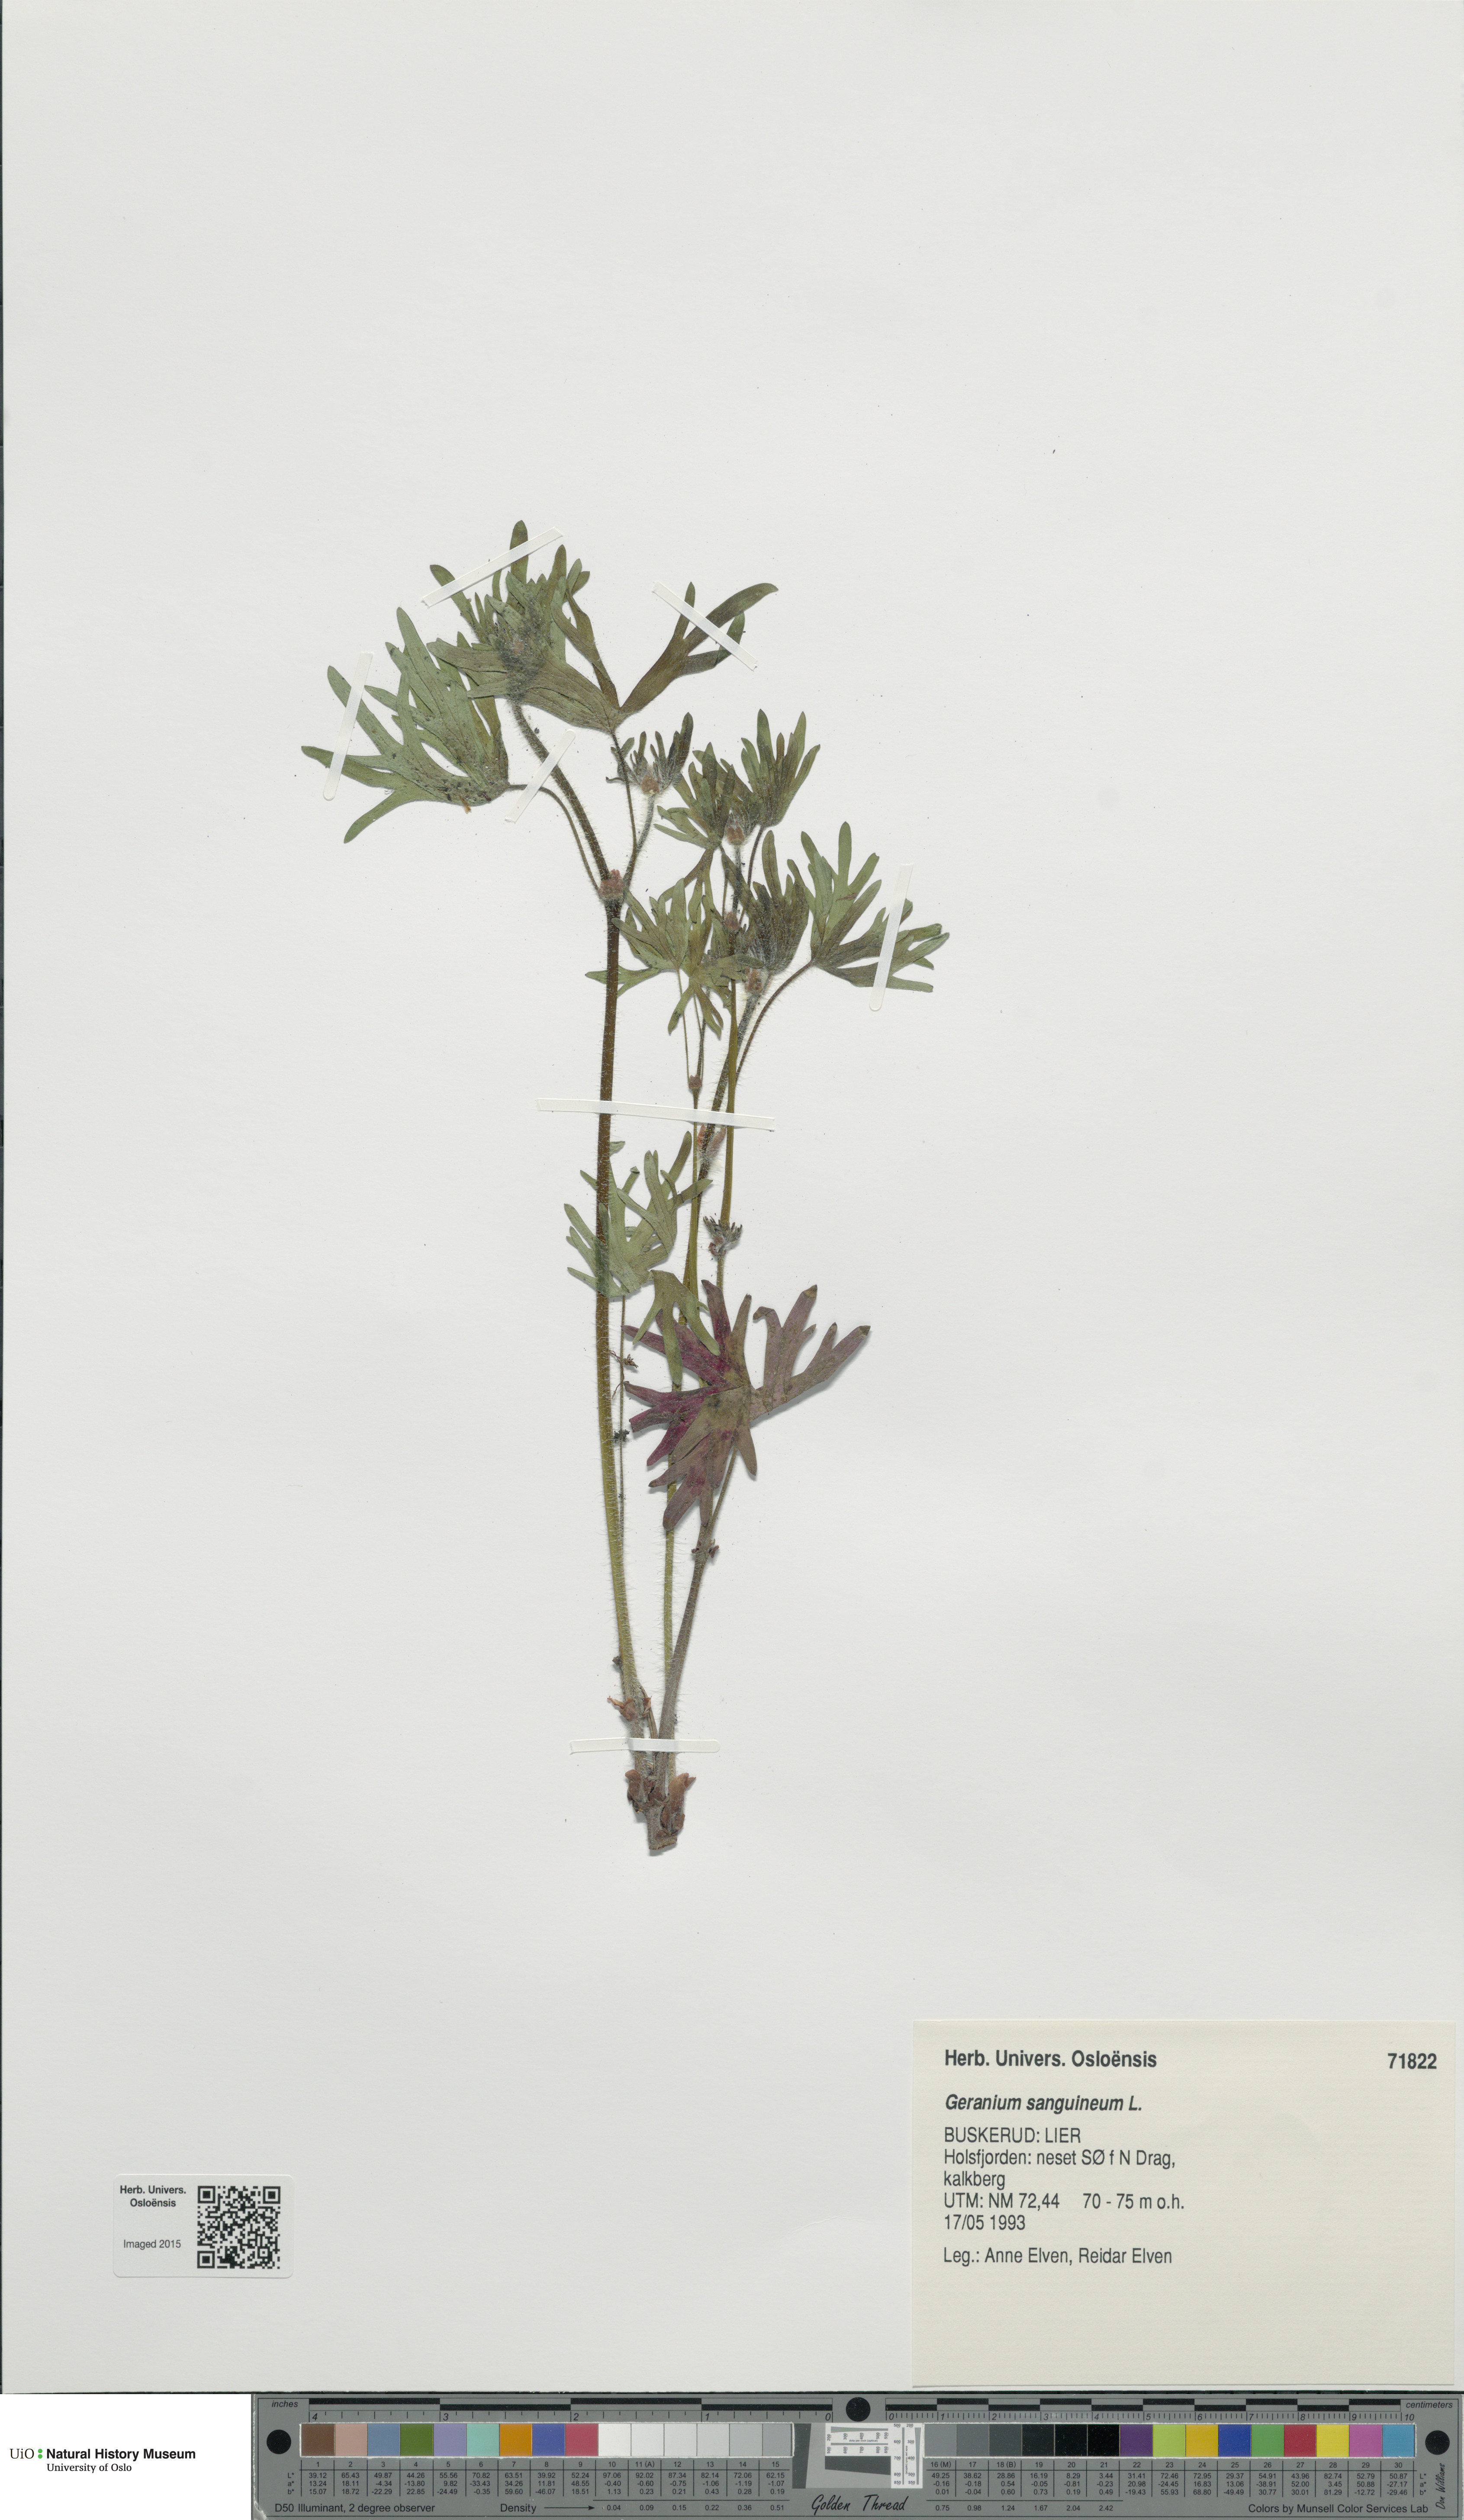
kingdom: Plantae
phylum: Tracheophyta
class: Magnoliopsida
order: Geraniales
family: Geraniaceae
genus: Geranium
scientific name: Geranium sanguineum
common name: Bloody crane's-bill
